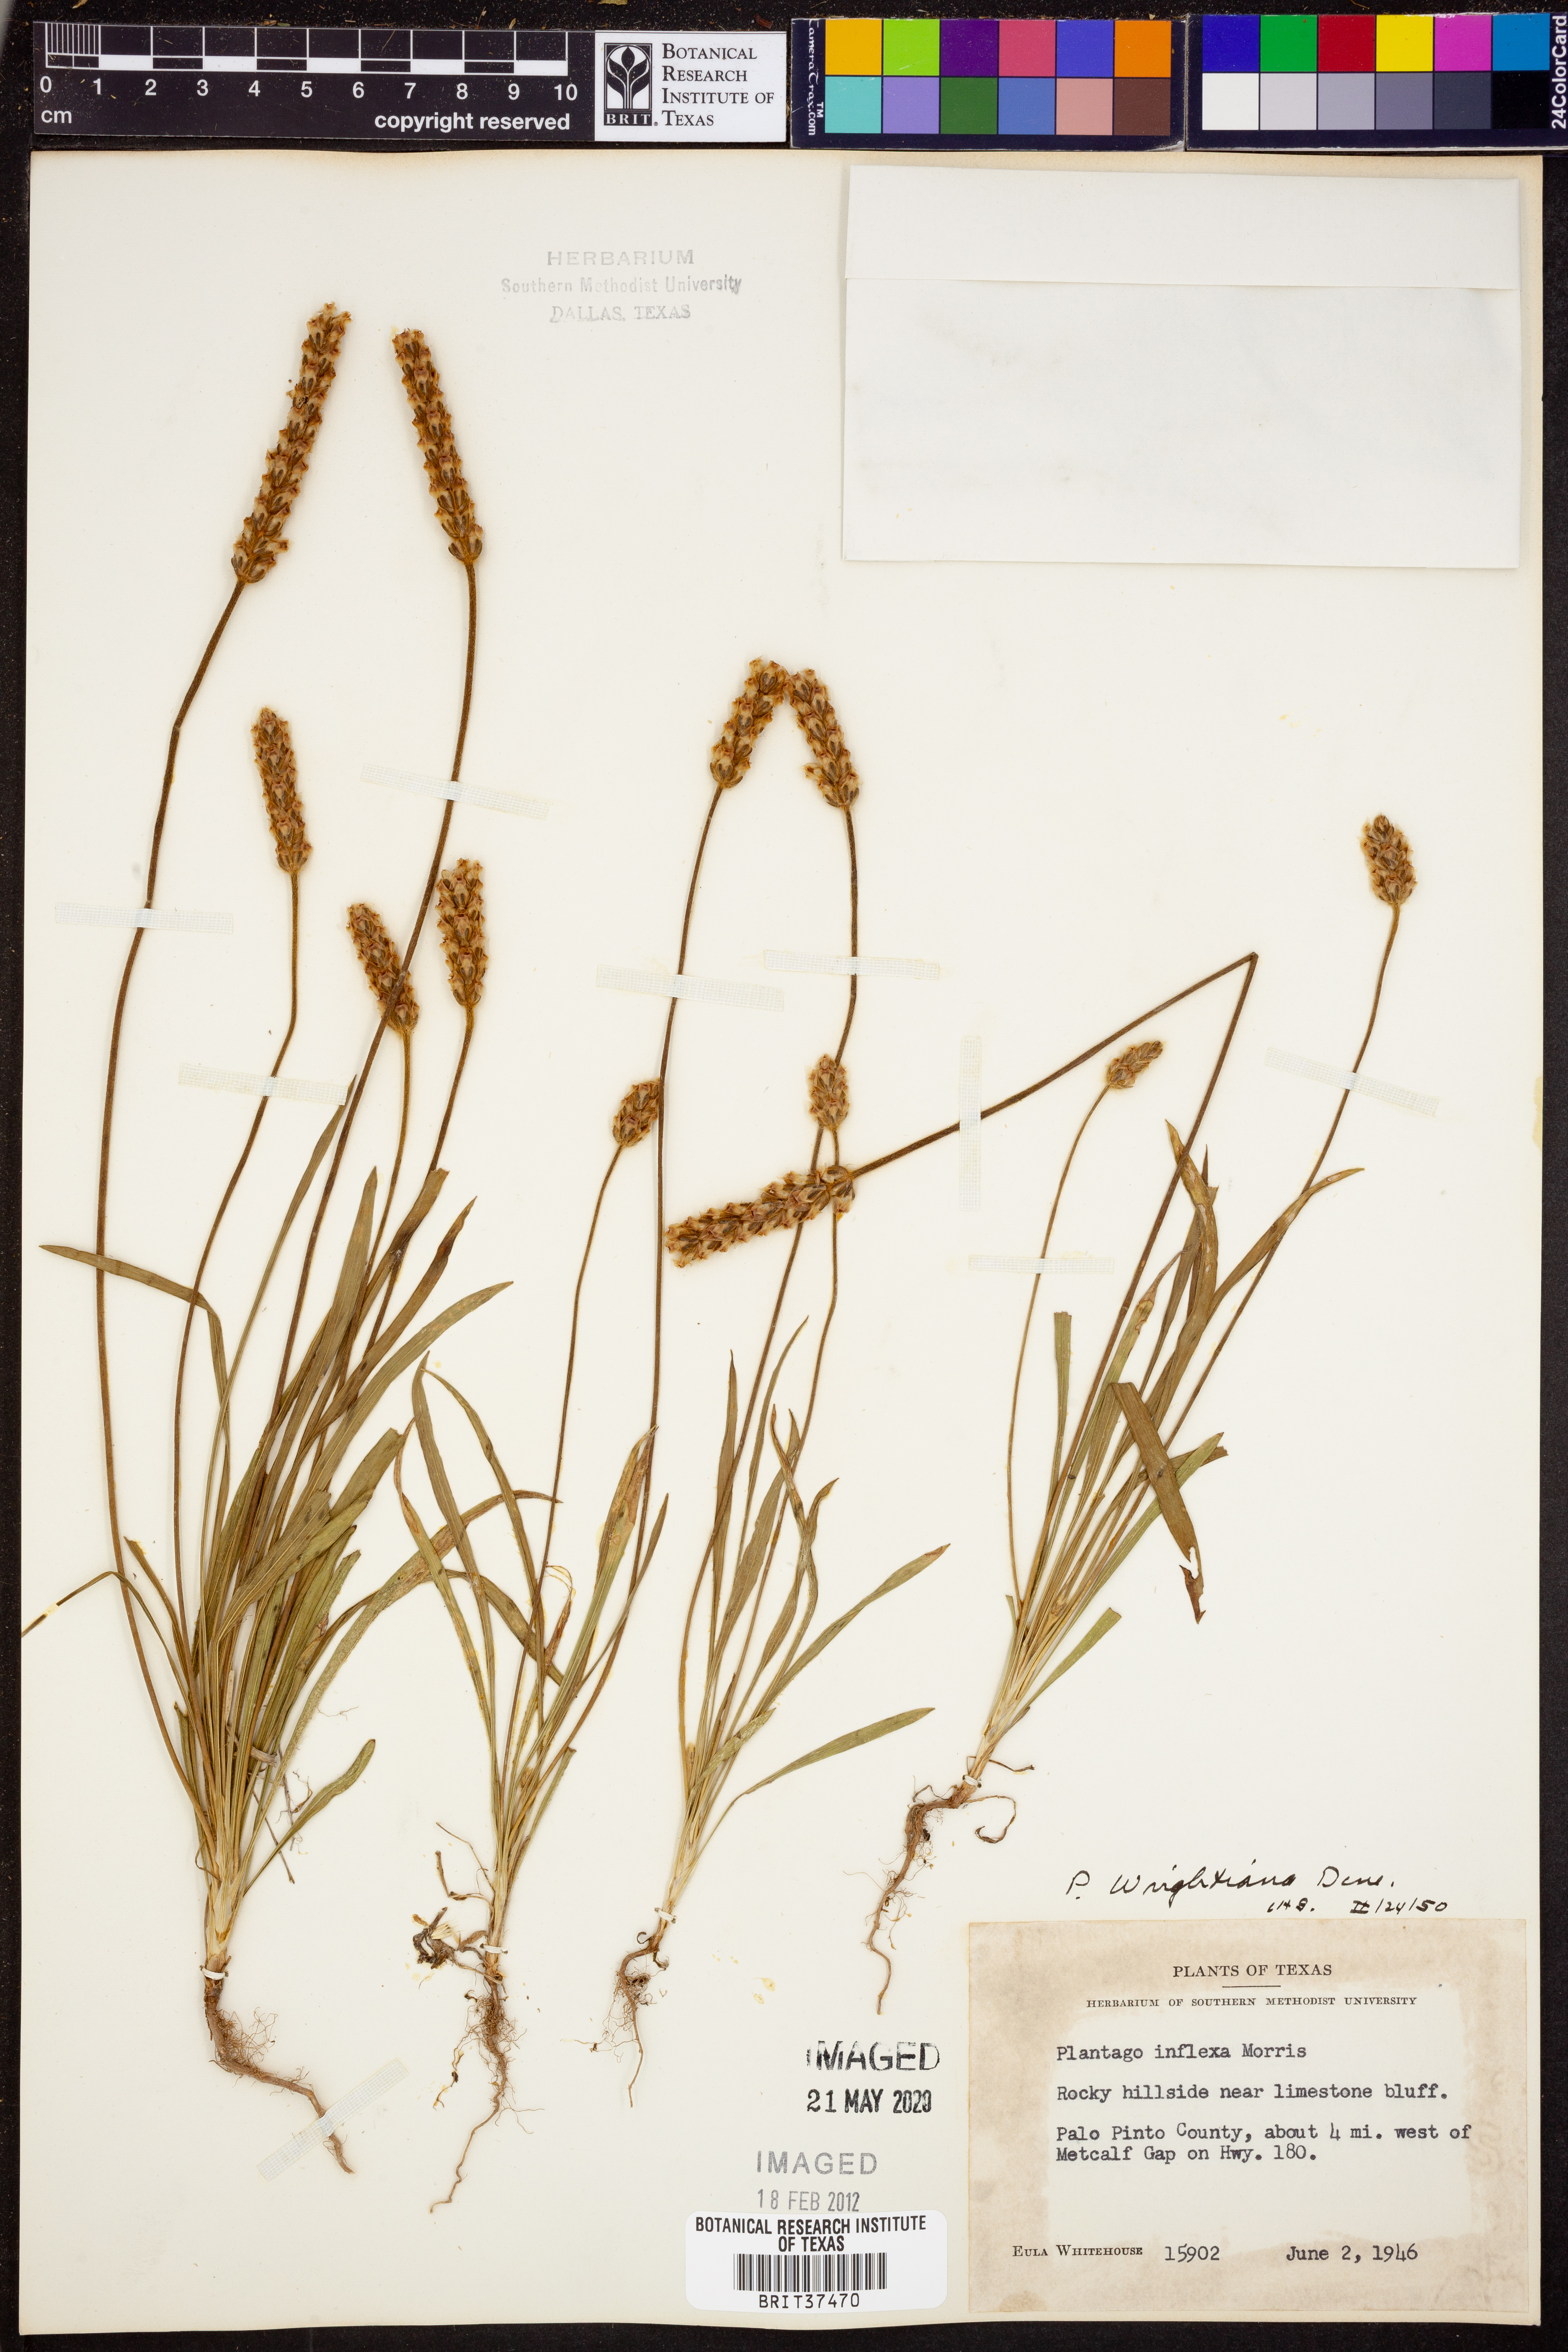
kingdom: Plantae
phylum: Tracheophyta
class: Magnoliopsida
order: Lamiales
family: Plantaginaceae
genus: Plantago
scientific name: Plantago wrightiana
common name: Wright's plantain
